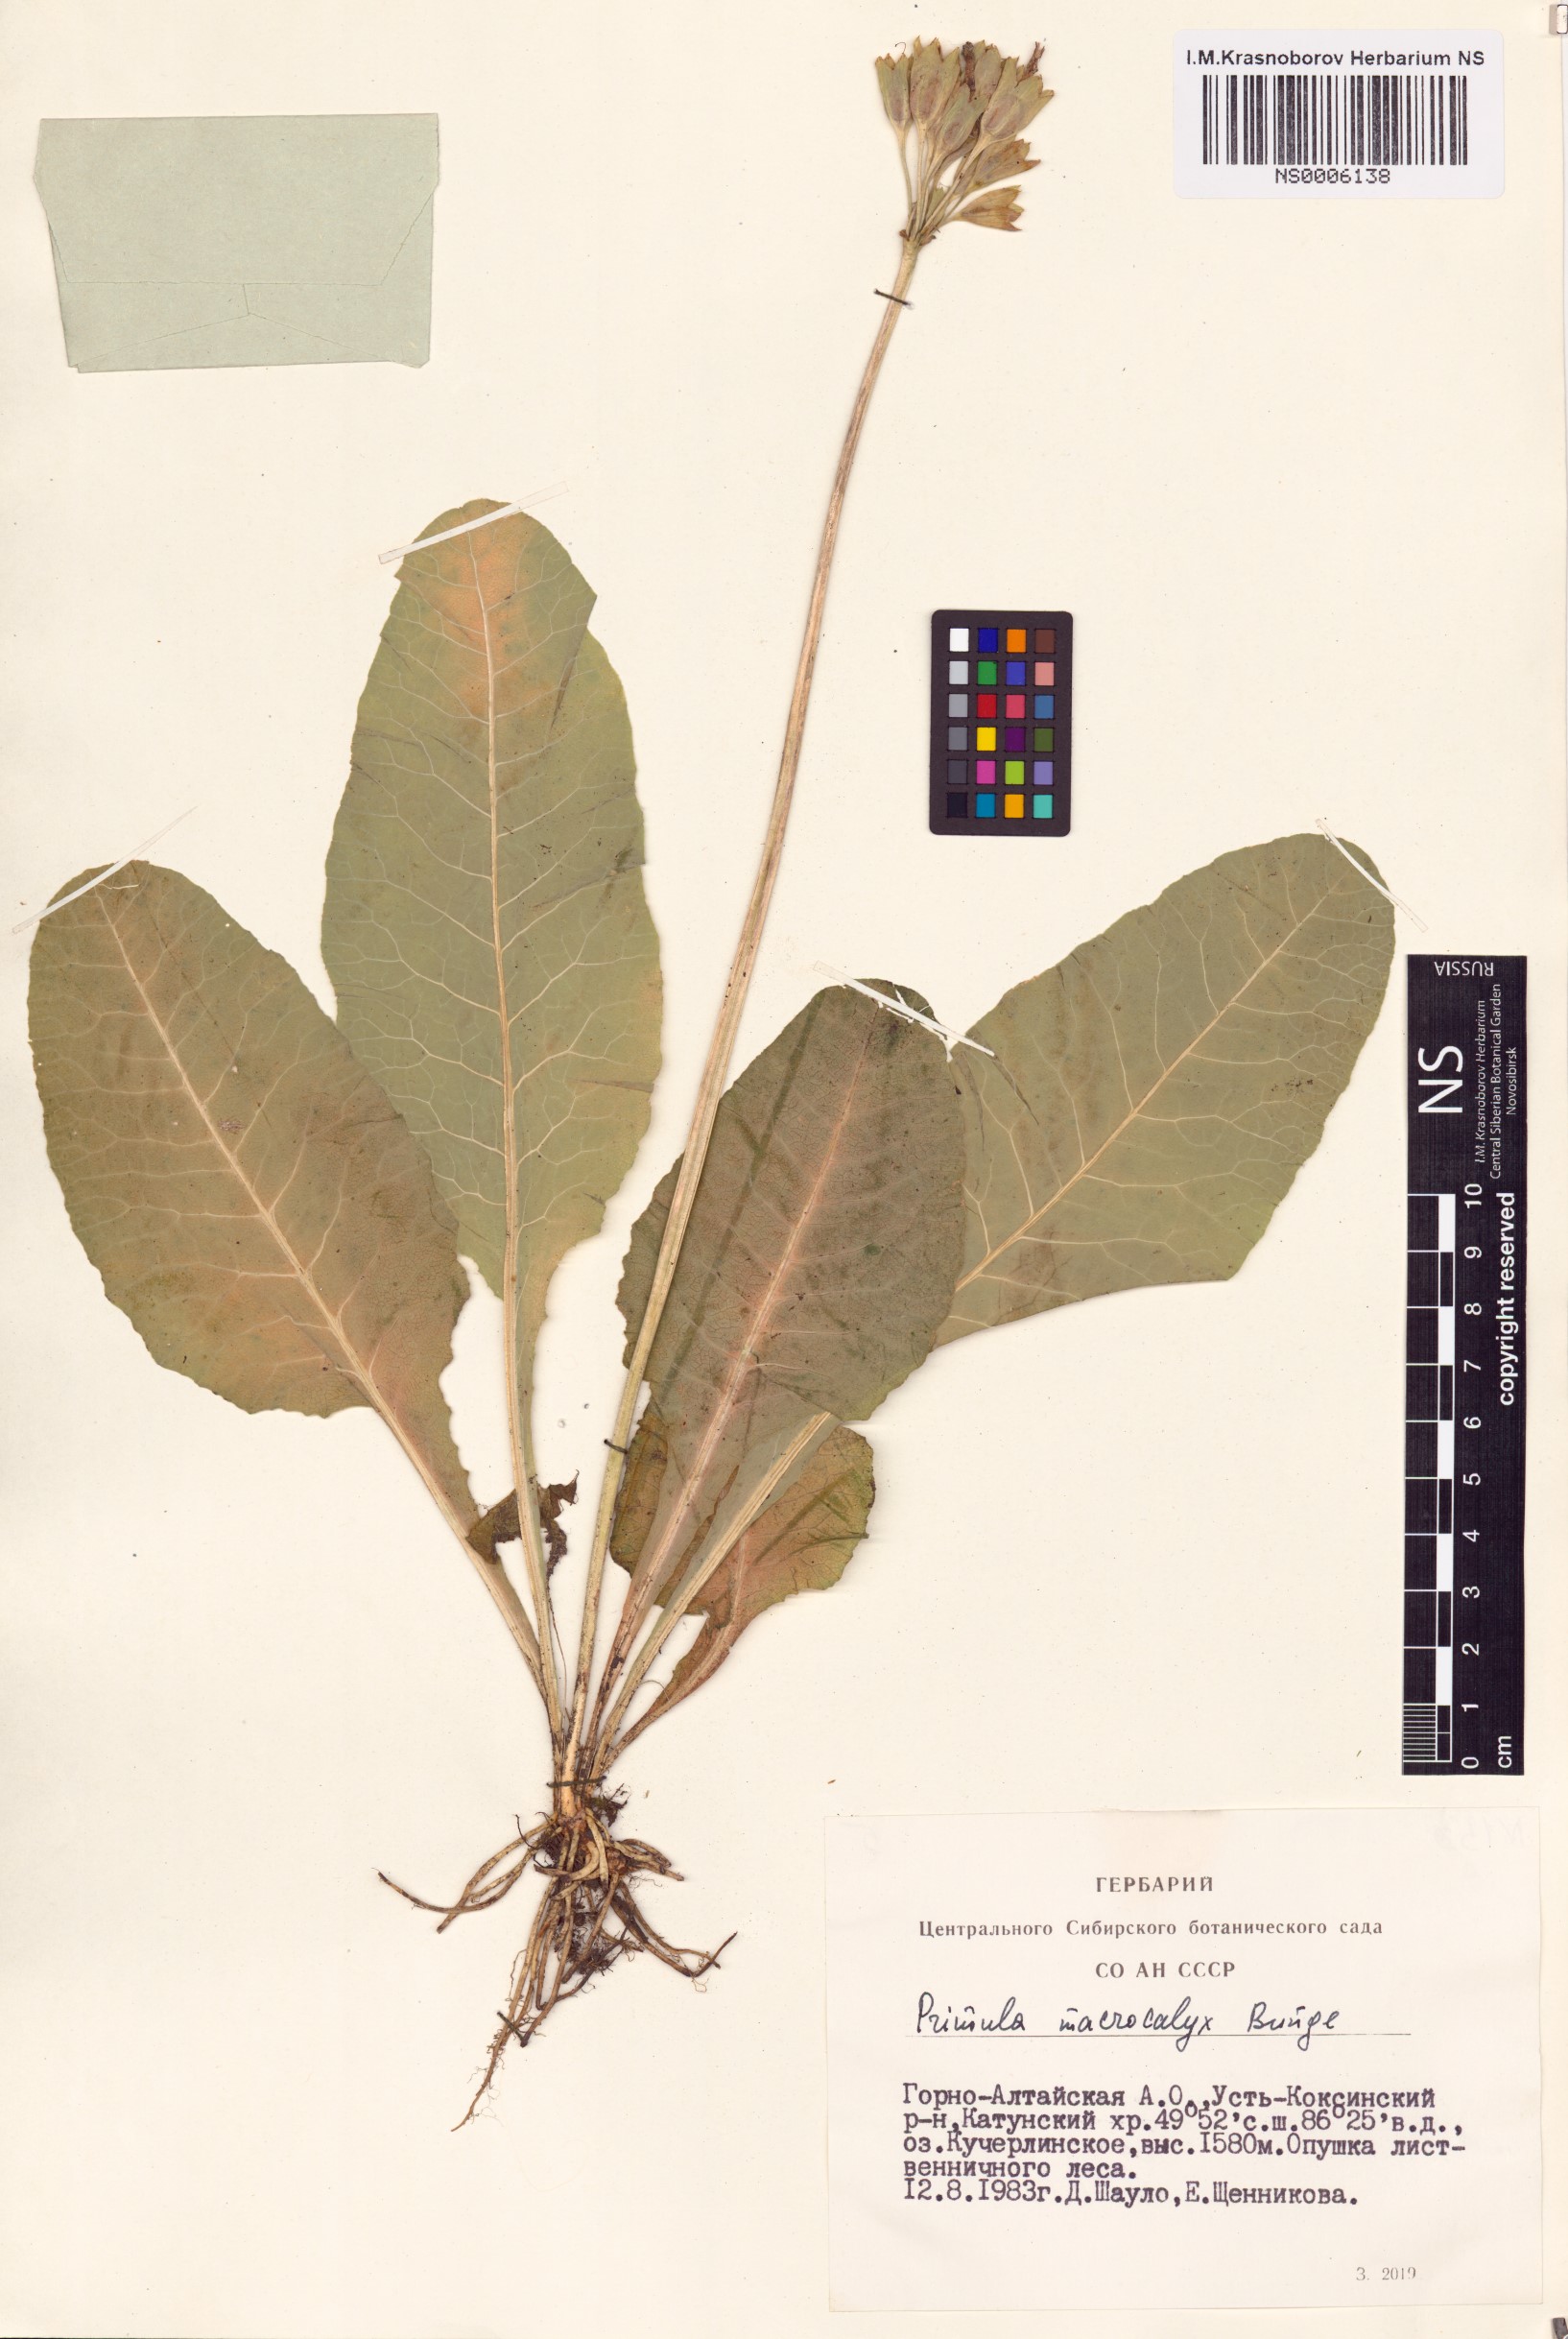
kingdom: Plantae
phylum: Tracheophyta
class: Magnoliopsida
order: Ericales
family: Primulaceae
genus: Primula
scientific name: Primula veris
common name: Cowslip
